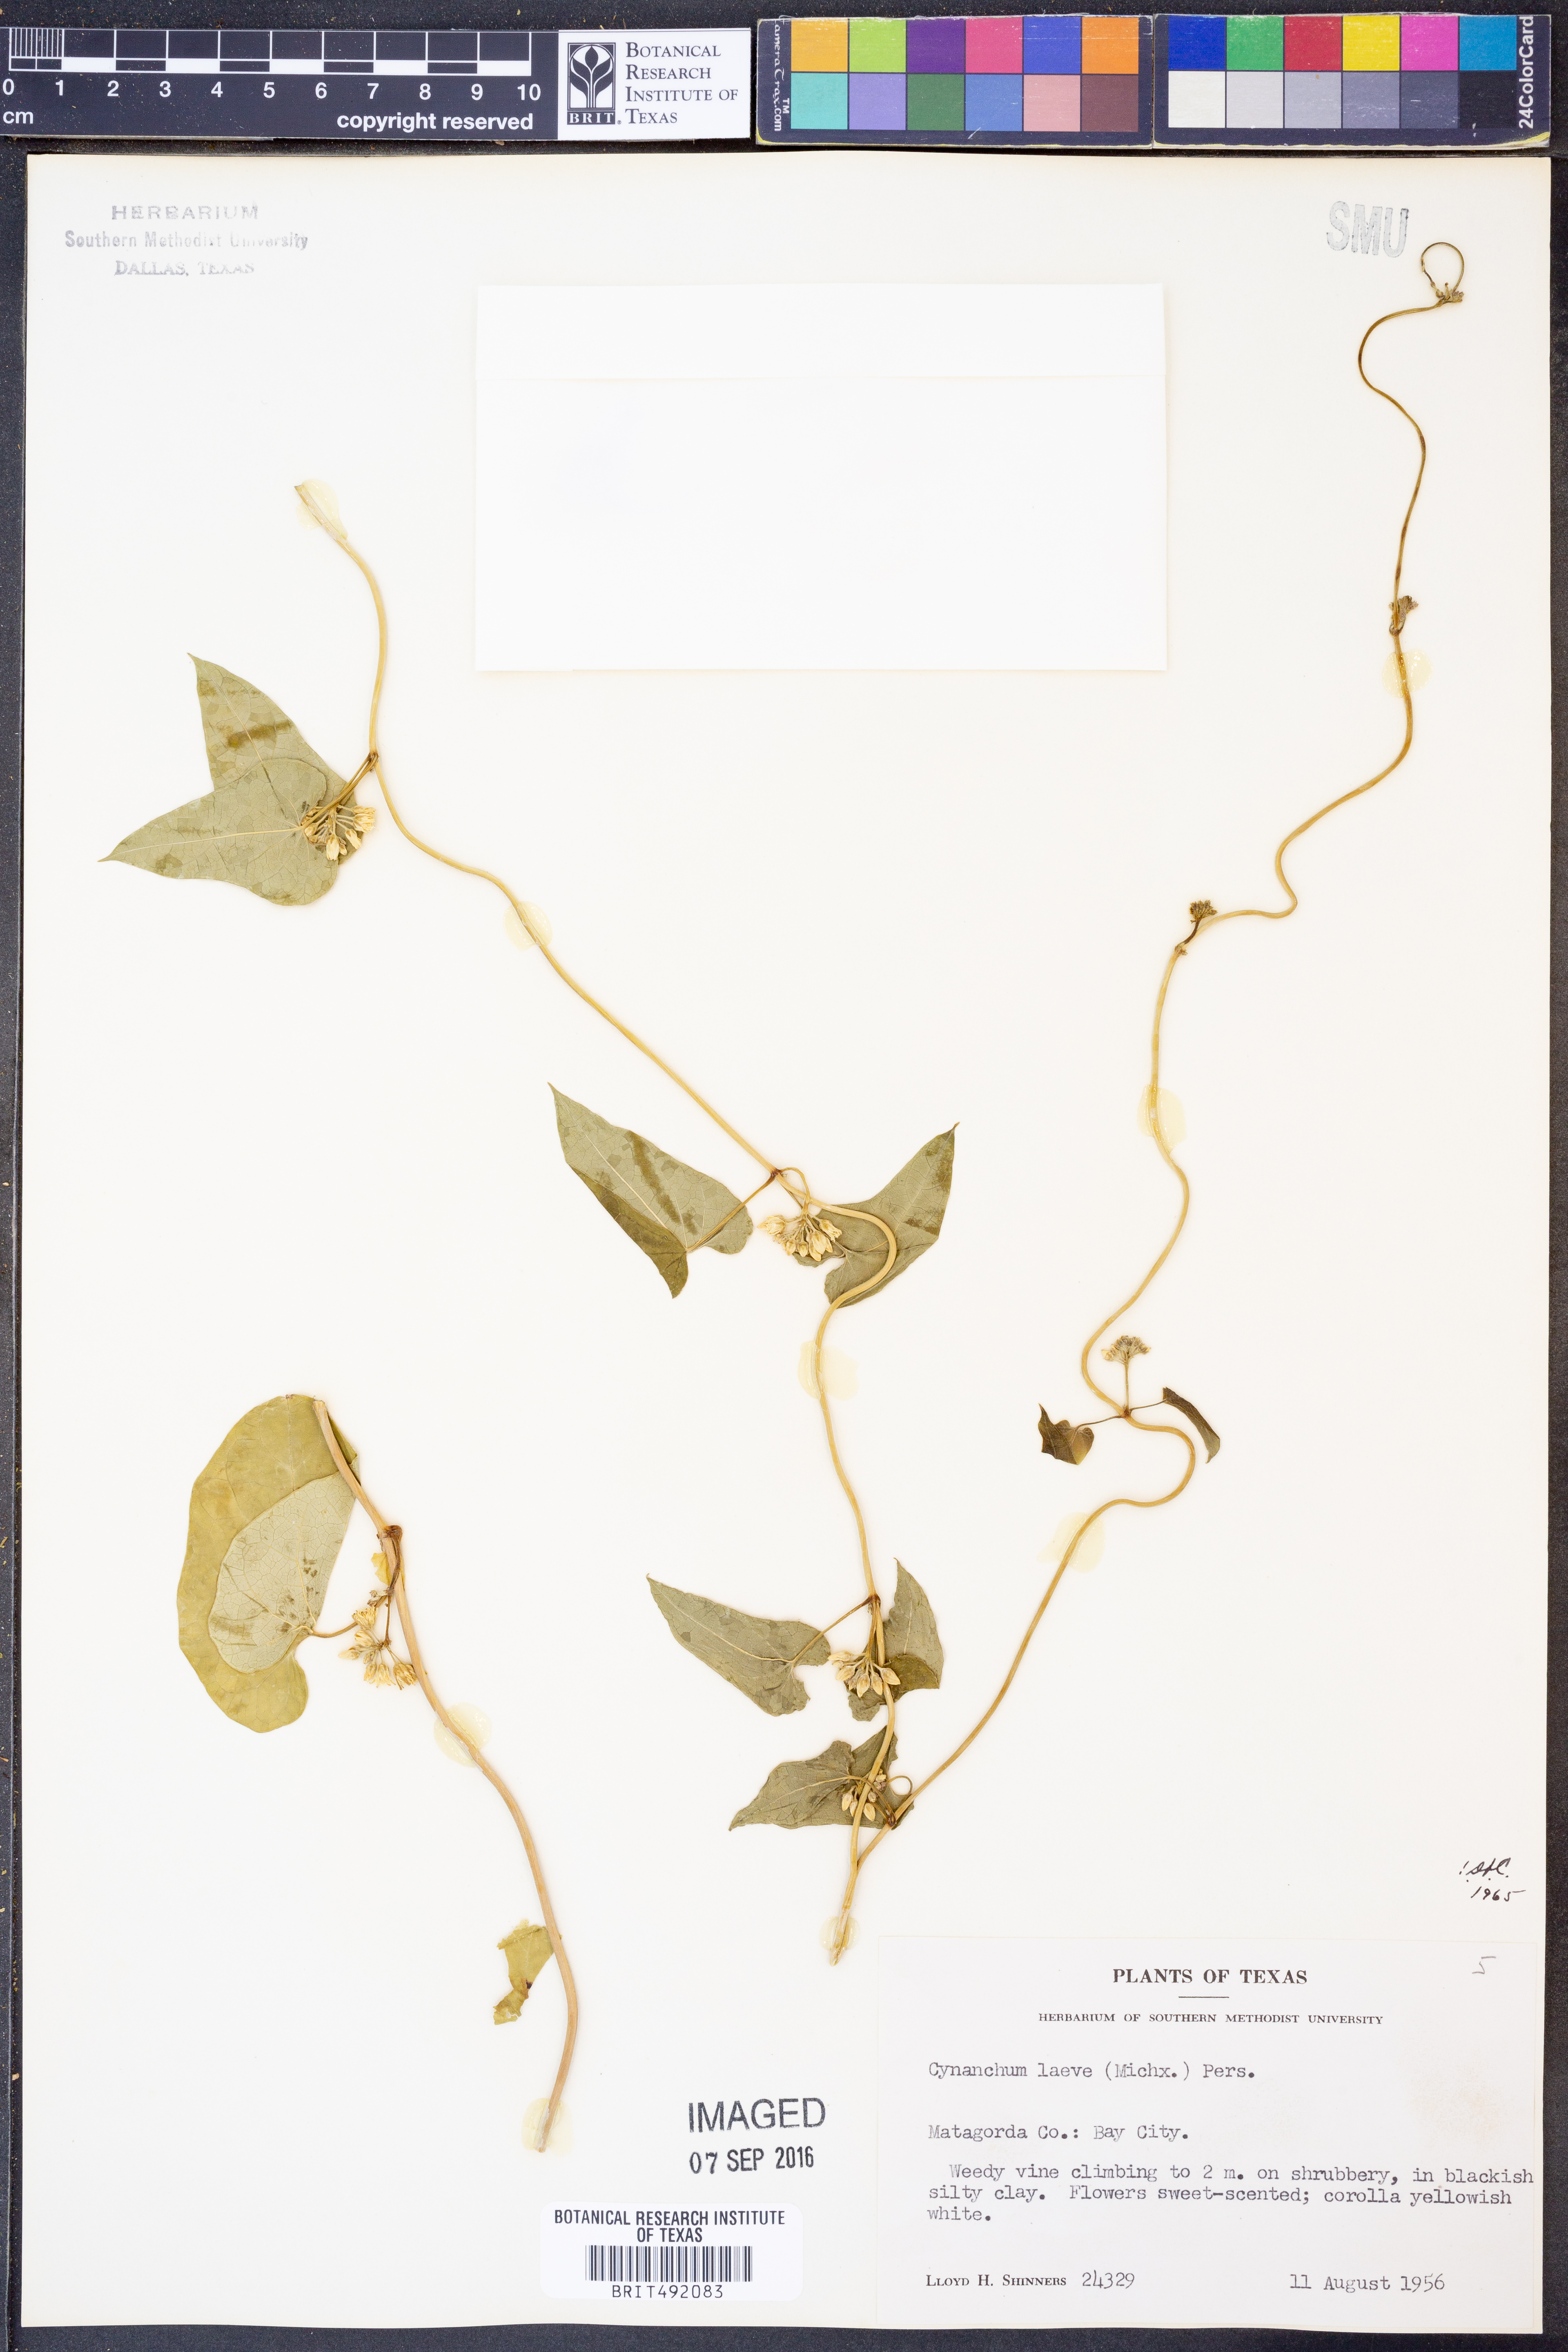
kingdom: Plantae
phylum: Tracheophyta
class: Magnoliopsida
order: Gentianales
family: Apocynaceae
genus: Cynanchum
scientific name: Cynanchum laeve
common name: Sandvine
